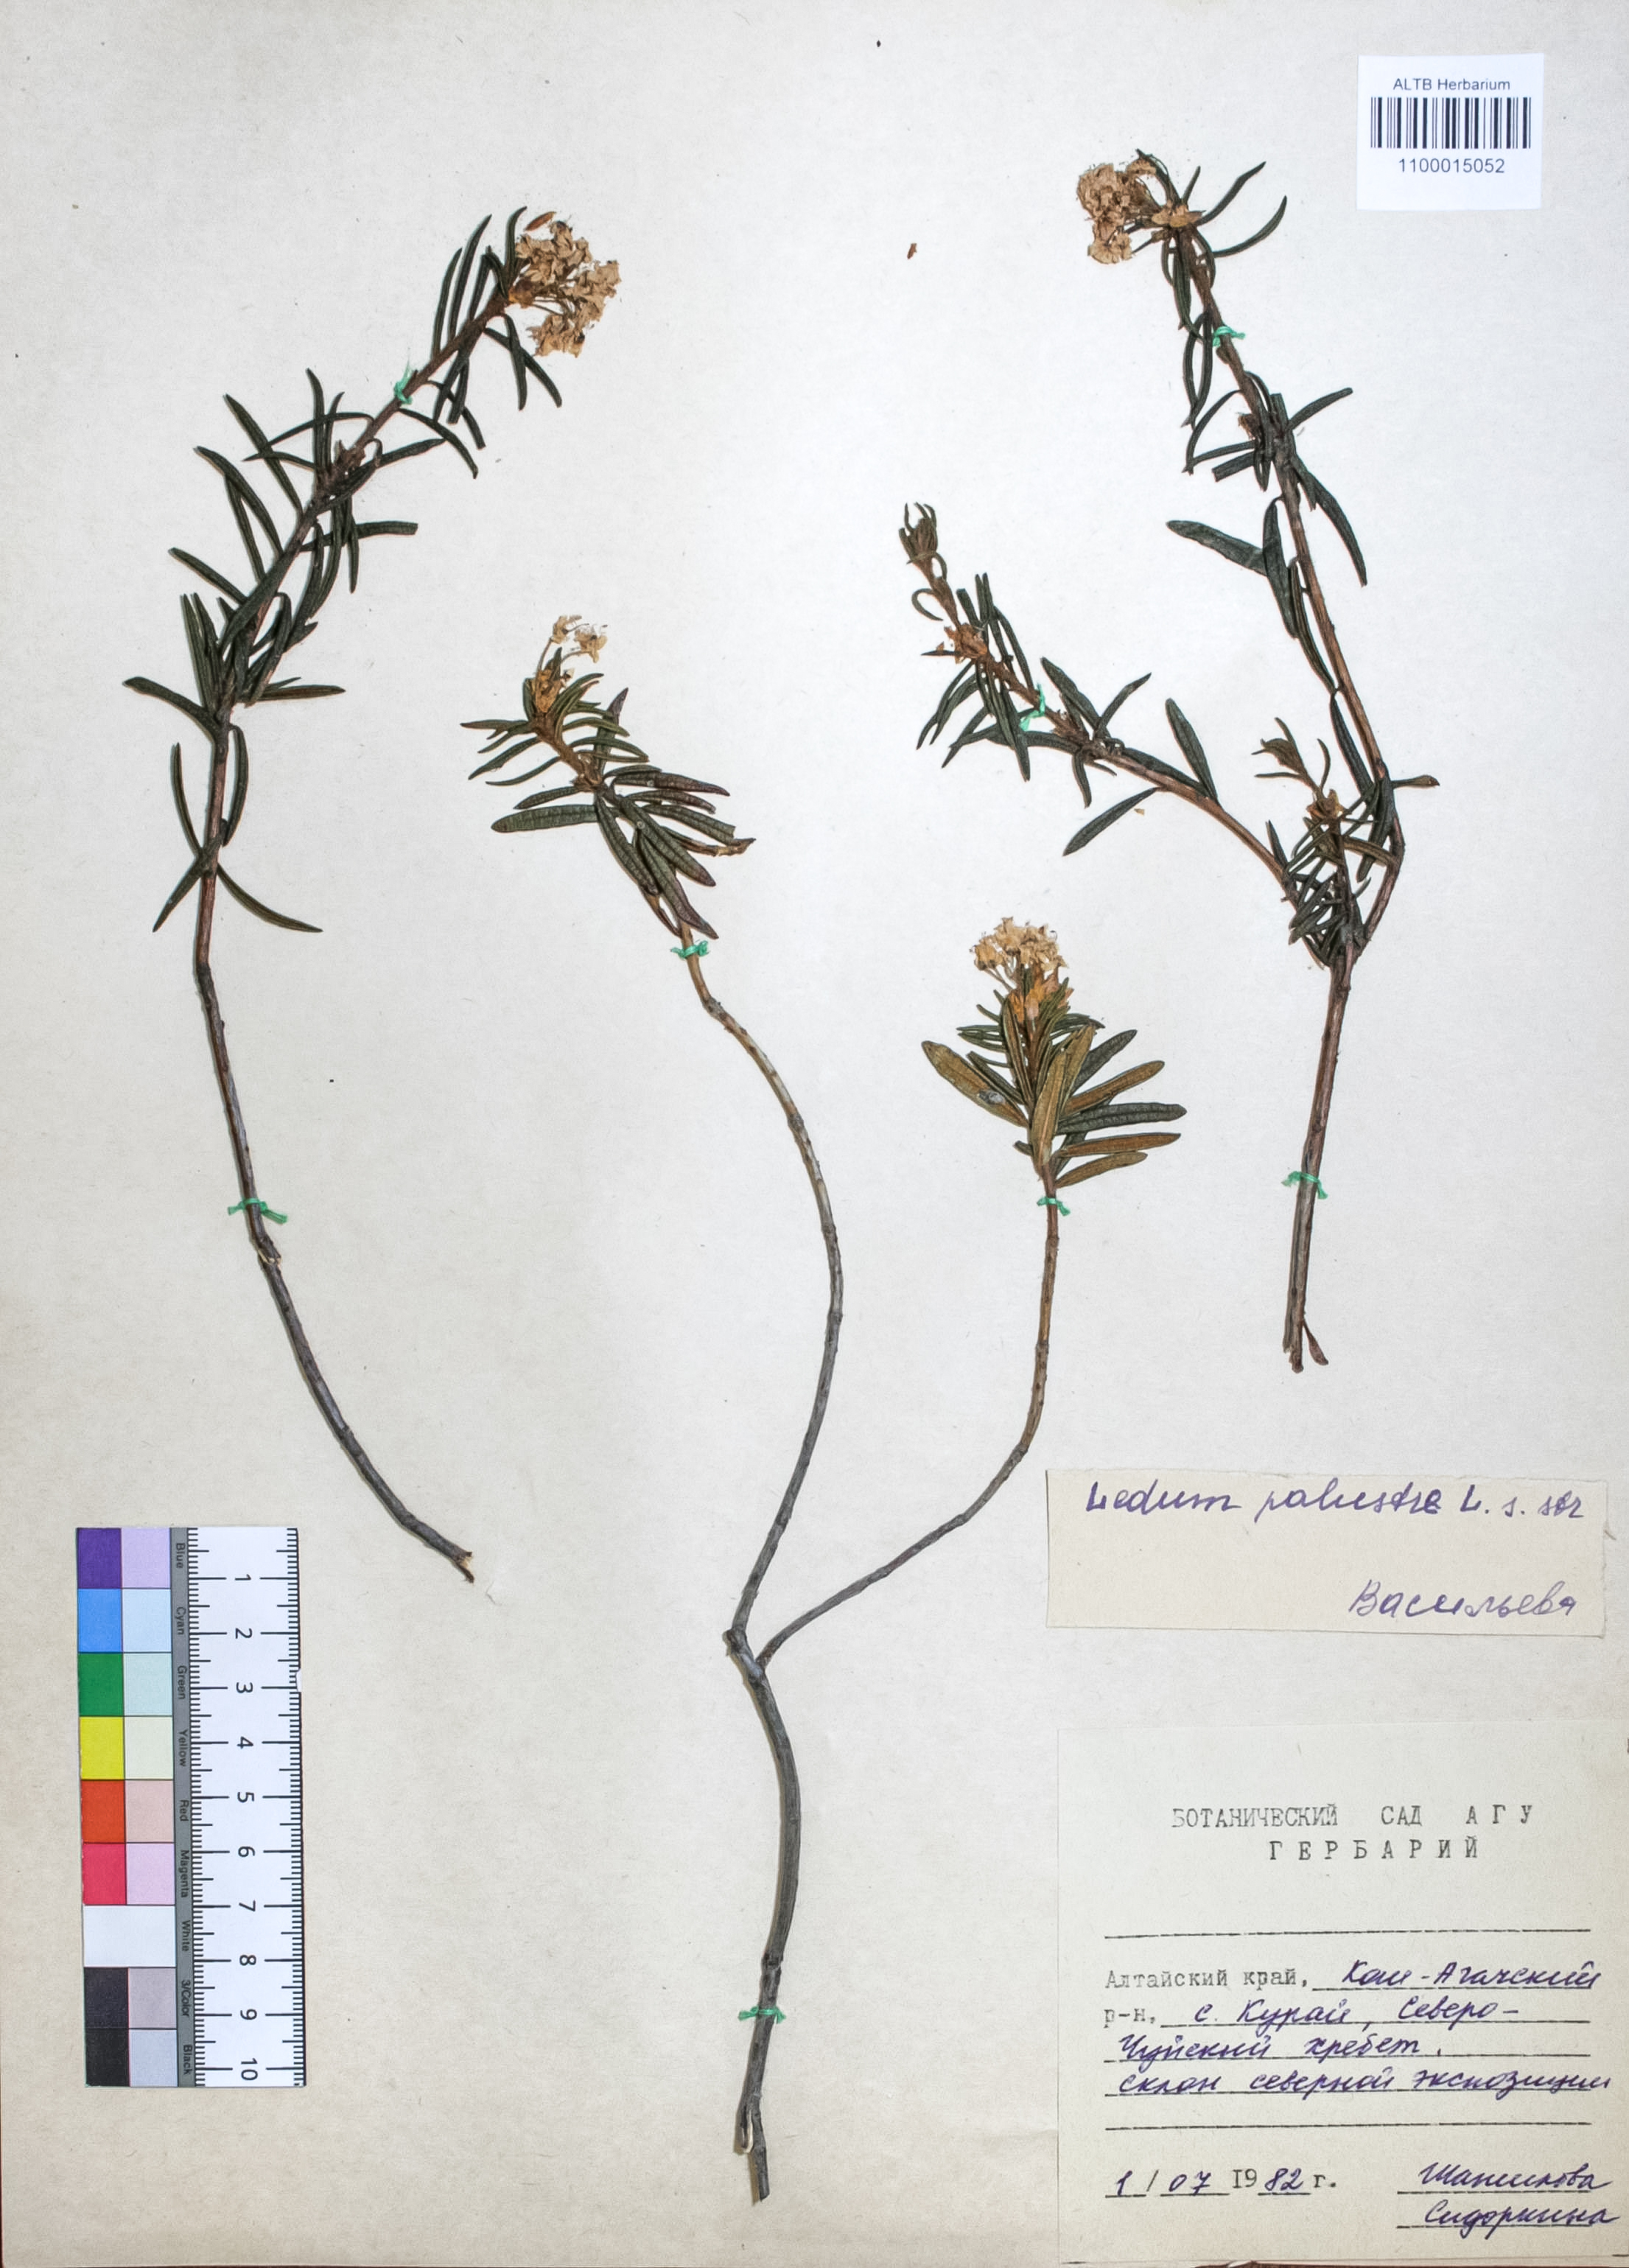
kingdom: Plantae
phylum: Tracheophyta
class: Magnoliopsida
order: Ericales
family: Ericaceae
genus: Rhododendron
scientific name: Rhododendron tomentosum
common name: Marsh labrador tea
